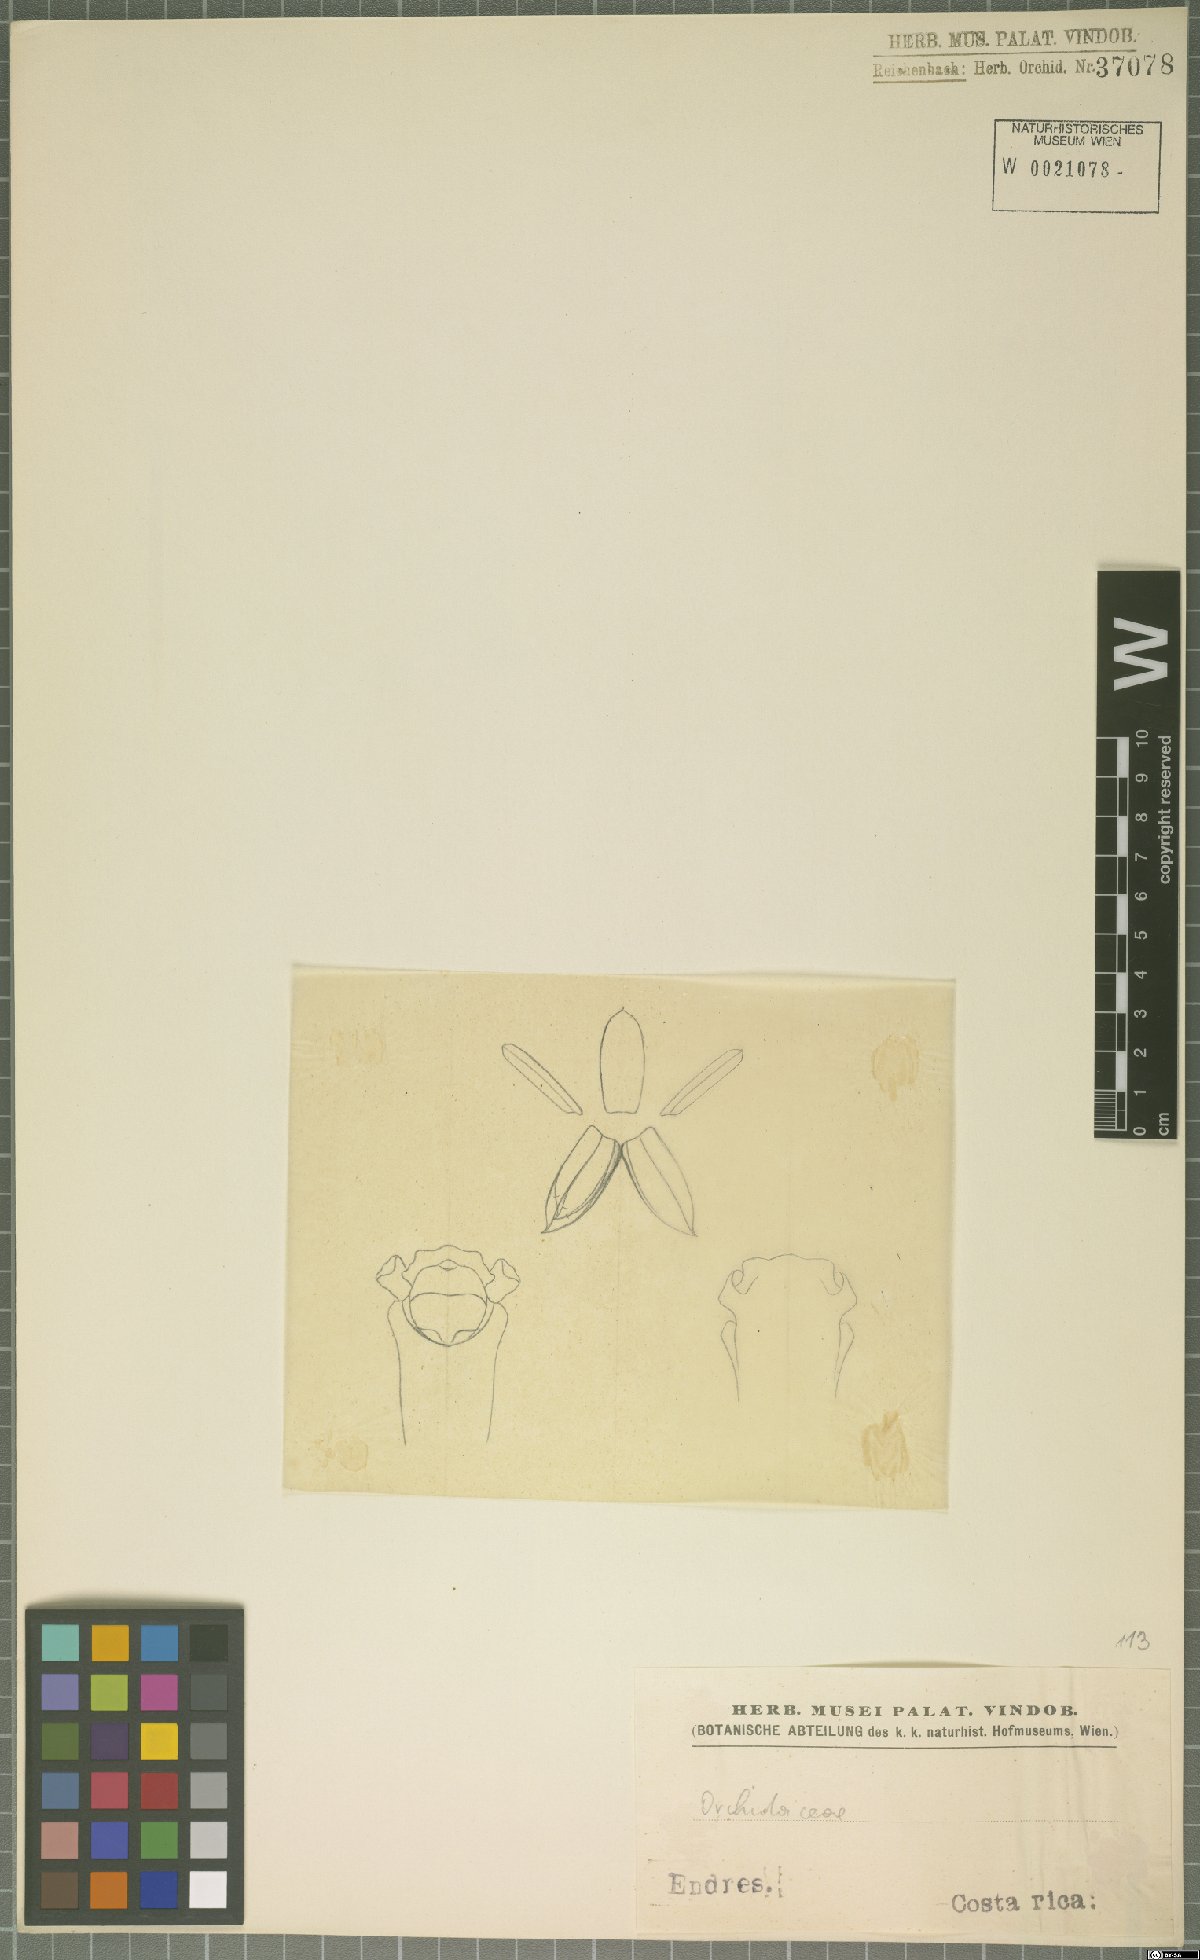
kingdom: Plantae
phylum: Tracheophyta
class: Liliopsida
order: Asparagales
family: Orchidaceae
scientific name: Orchidaceae
